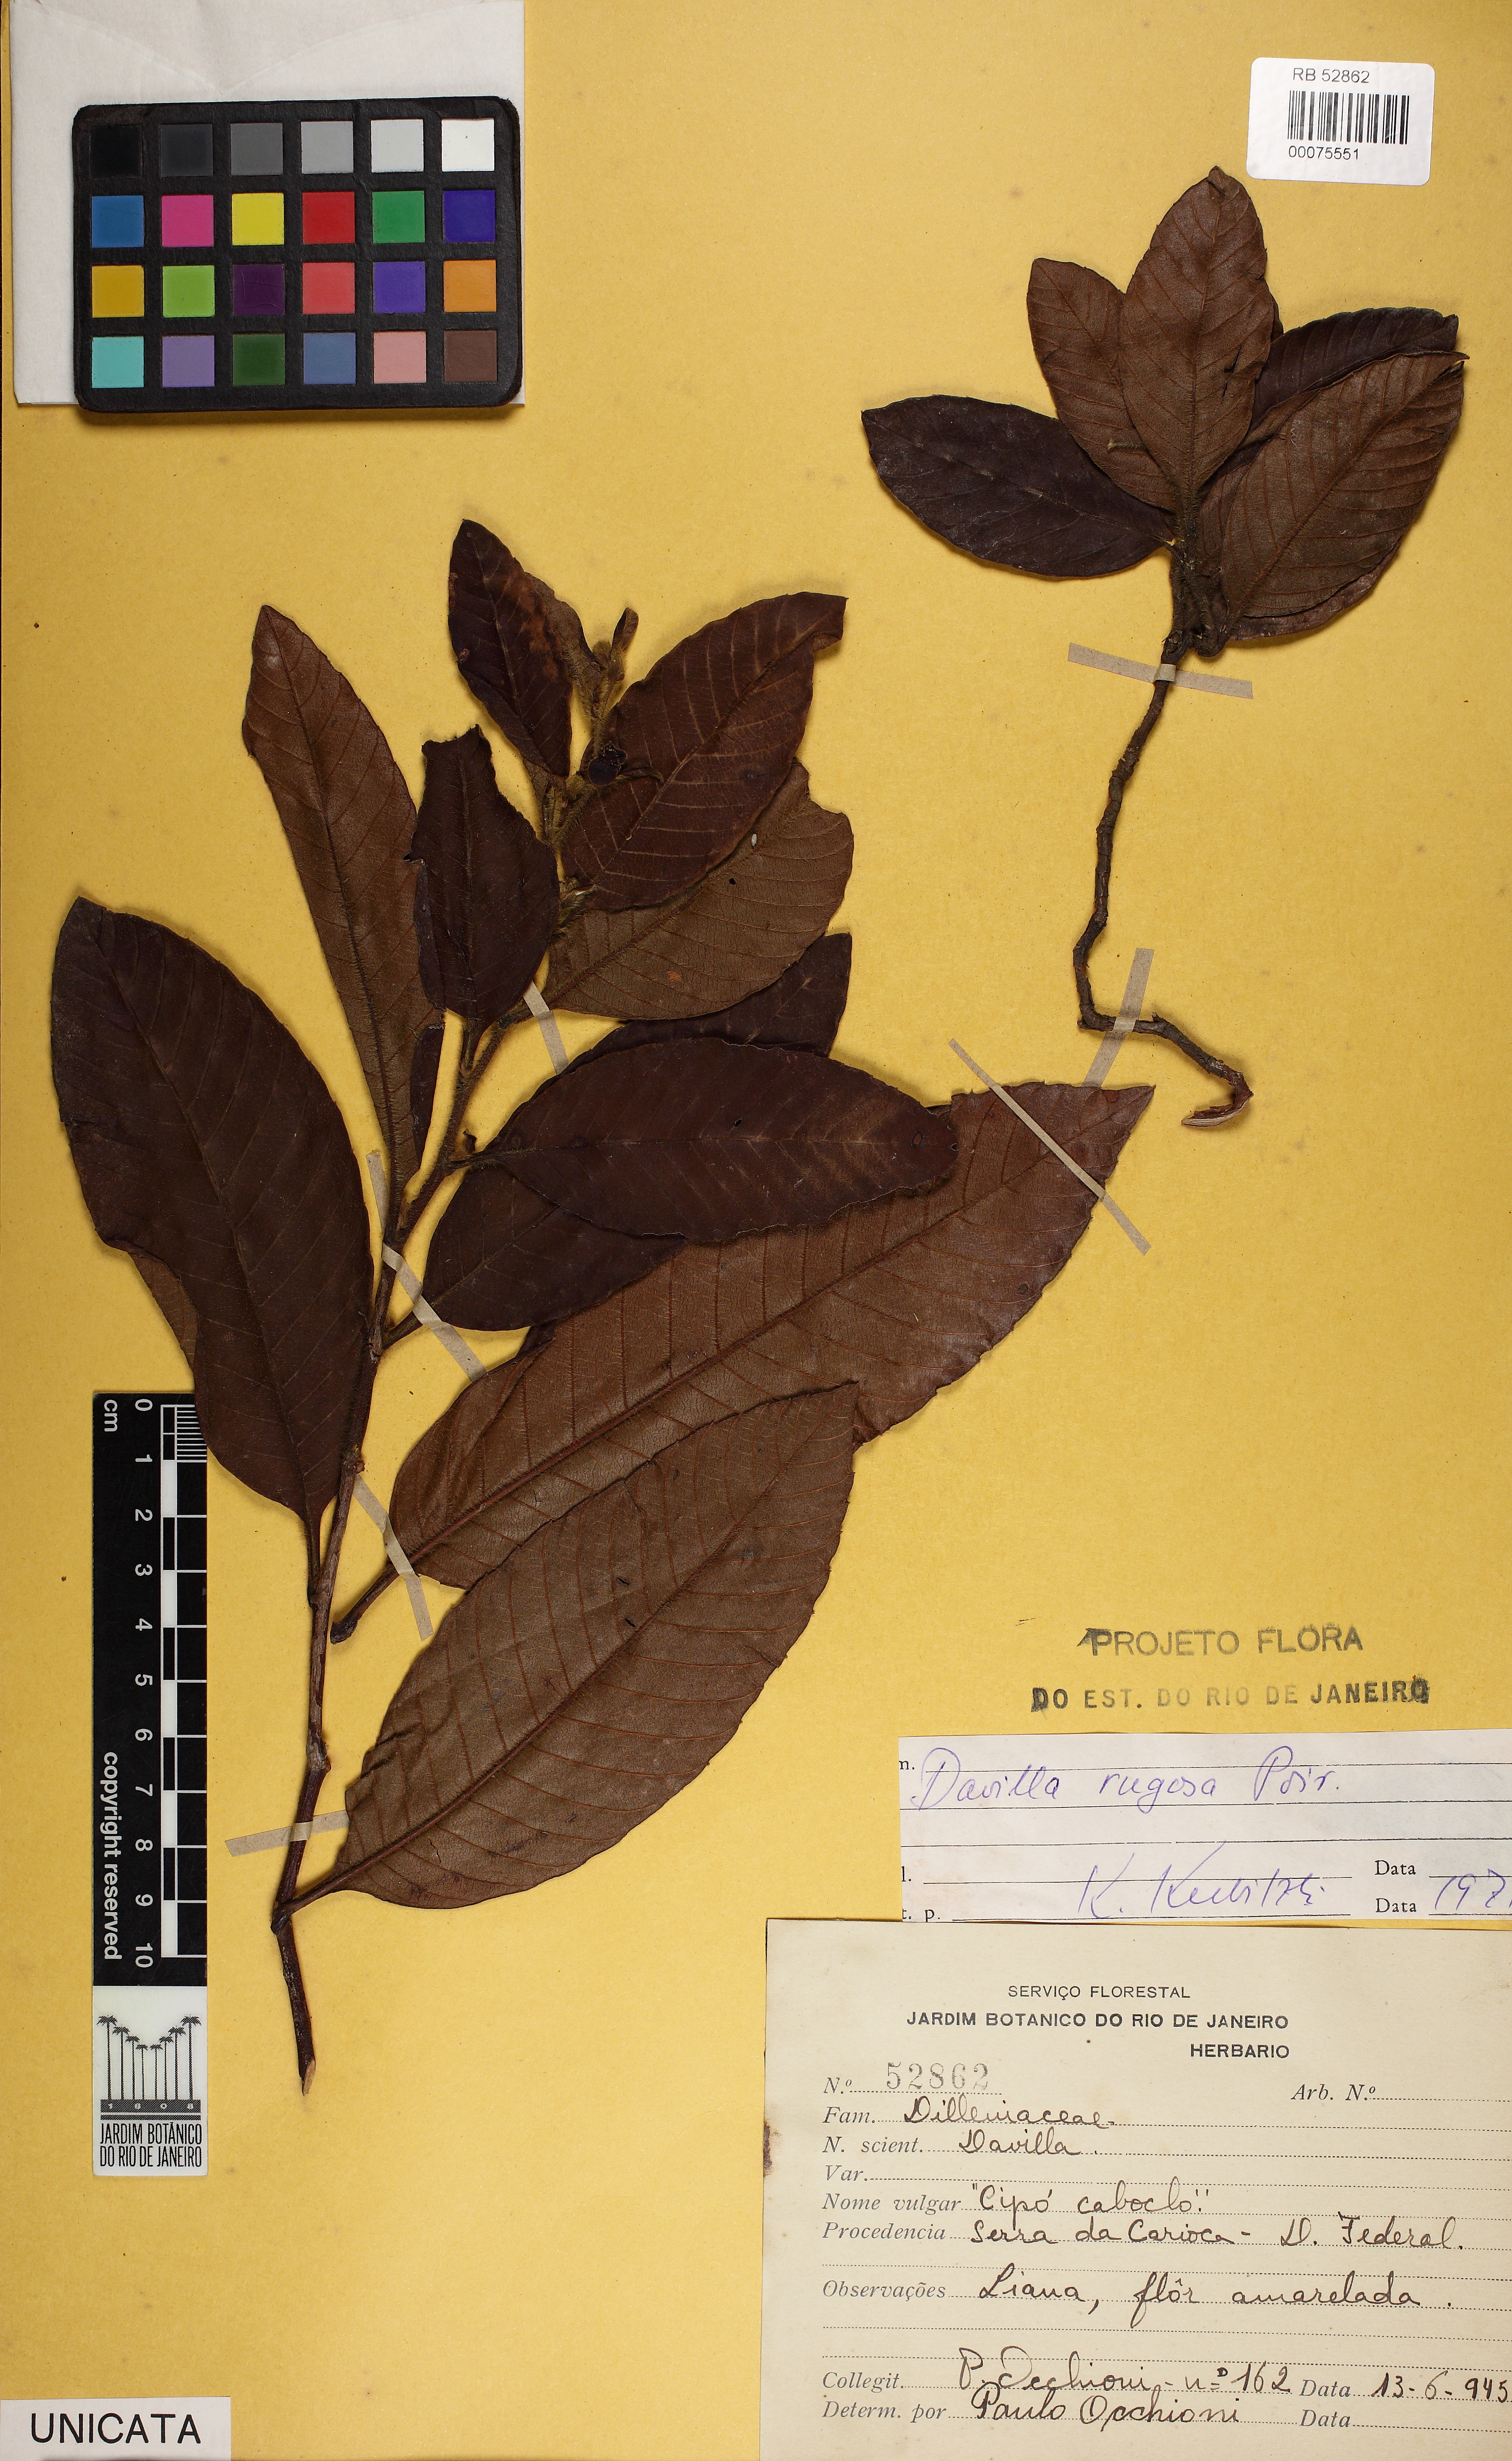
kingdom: Plantae
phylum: Tracheophyta
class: Magnoliopsida
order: Dilleniales
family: Dilleniaceae
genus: Davilla
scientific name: Davilla rugosa
